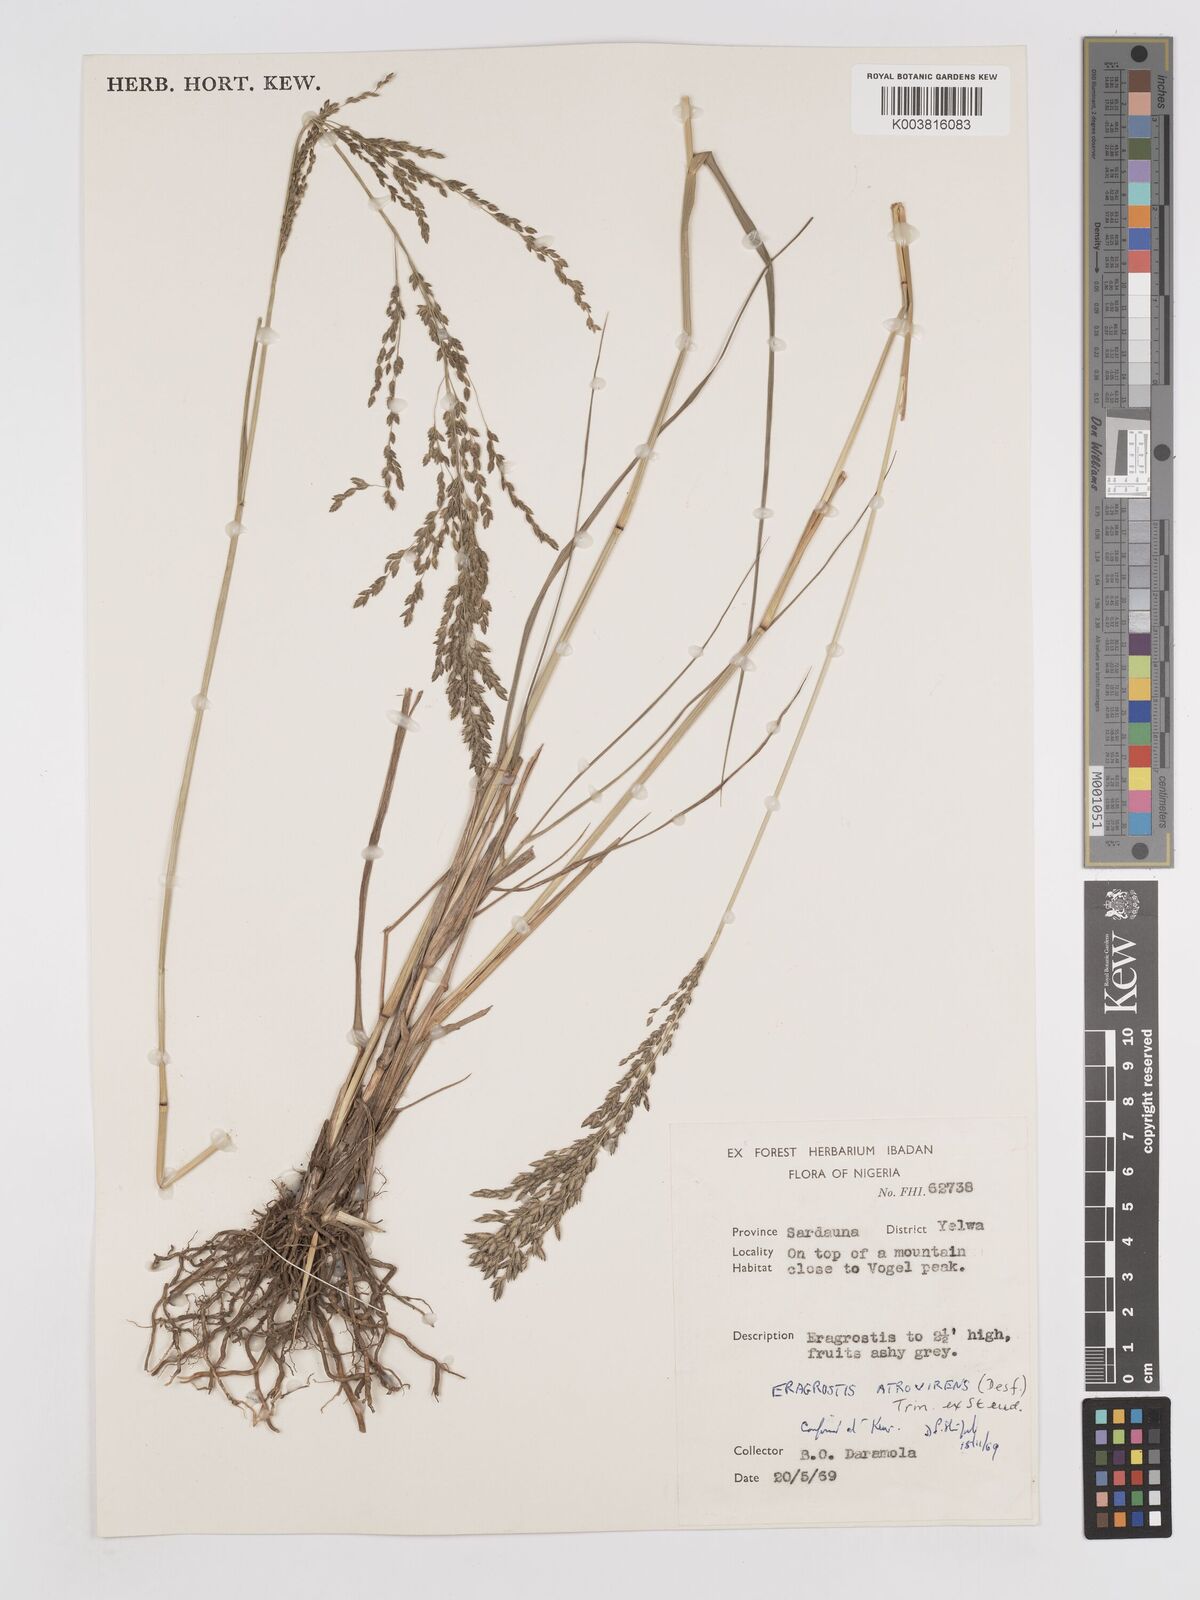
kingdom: Plantae
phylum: Tracheophyta
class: Liliopsida
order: Poales
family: Poaceae
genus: Eragrostis
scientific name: Eragrostis atrovirens
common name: Thalia lovegrass
